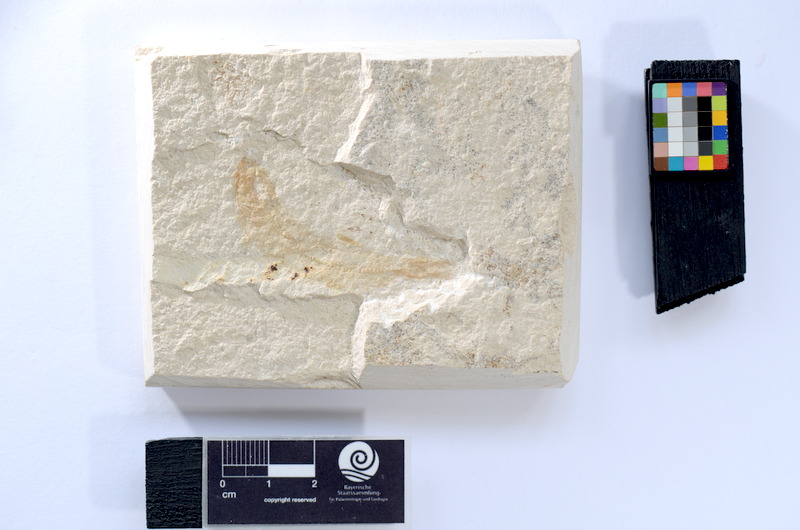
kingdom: Animalia
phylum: Chordata
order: Salmoniformes
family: Orthogonikleithridae
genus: Leptolepides
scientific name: Leptolepides sprattiformis
